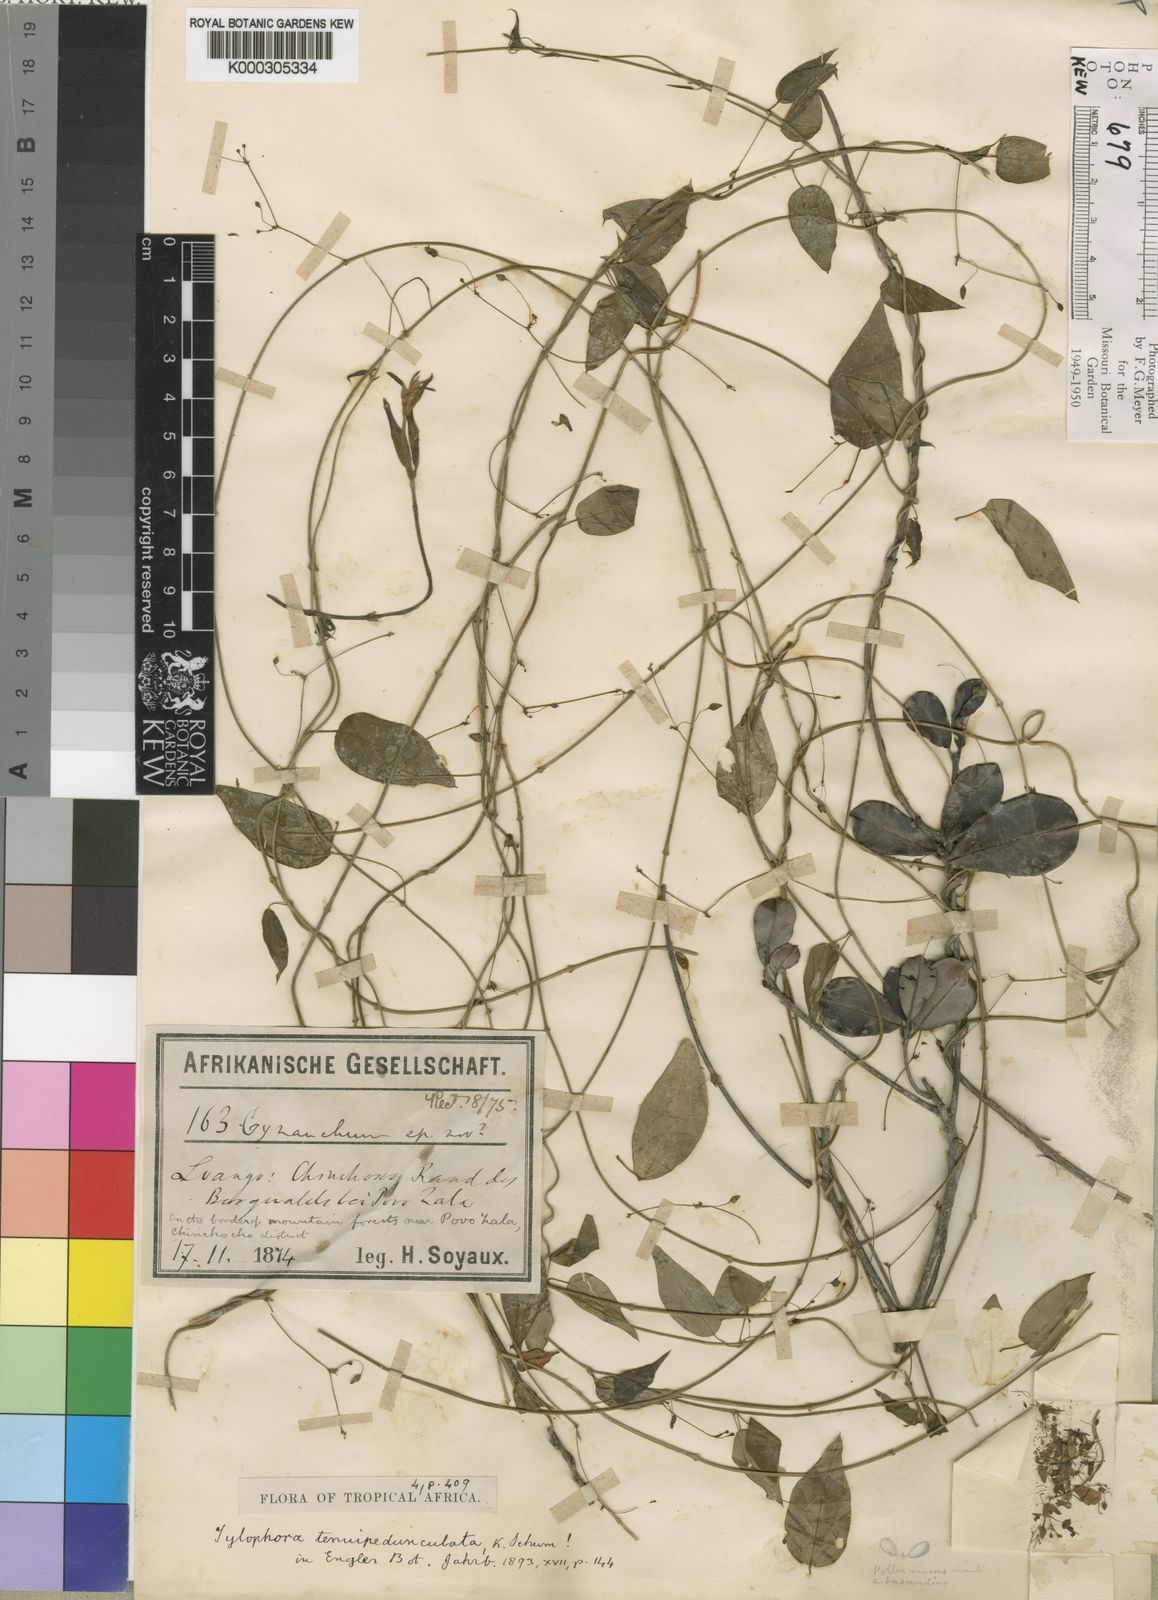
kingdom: Plantae
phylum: Tracheophyta
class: Magnoliopsida
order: Gentianales
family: Apocynaceae
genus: Vincetoxicum
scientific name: Vincetoxicum tenuipedunculatum
